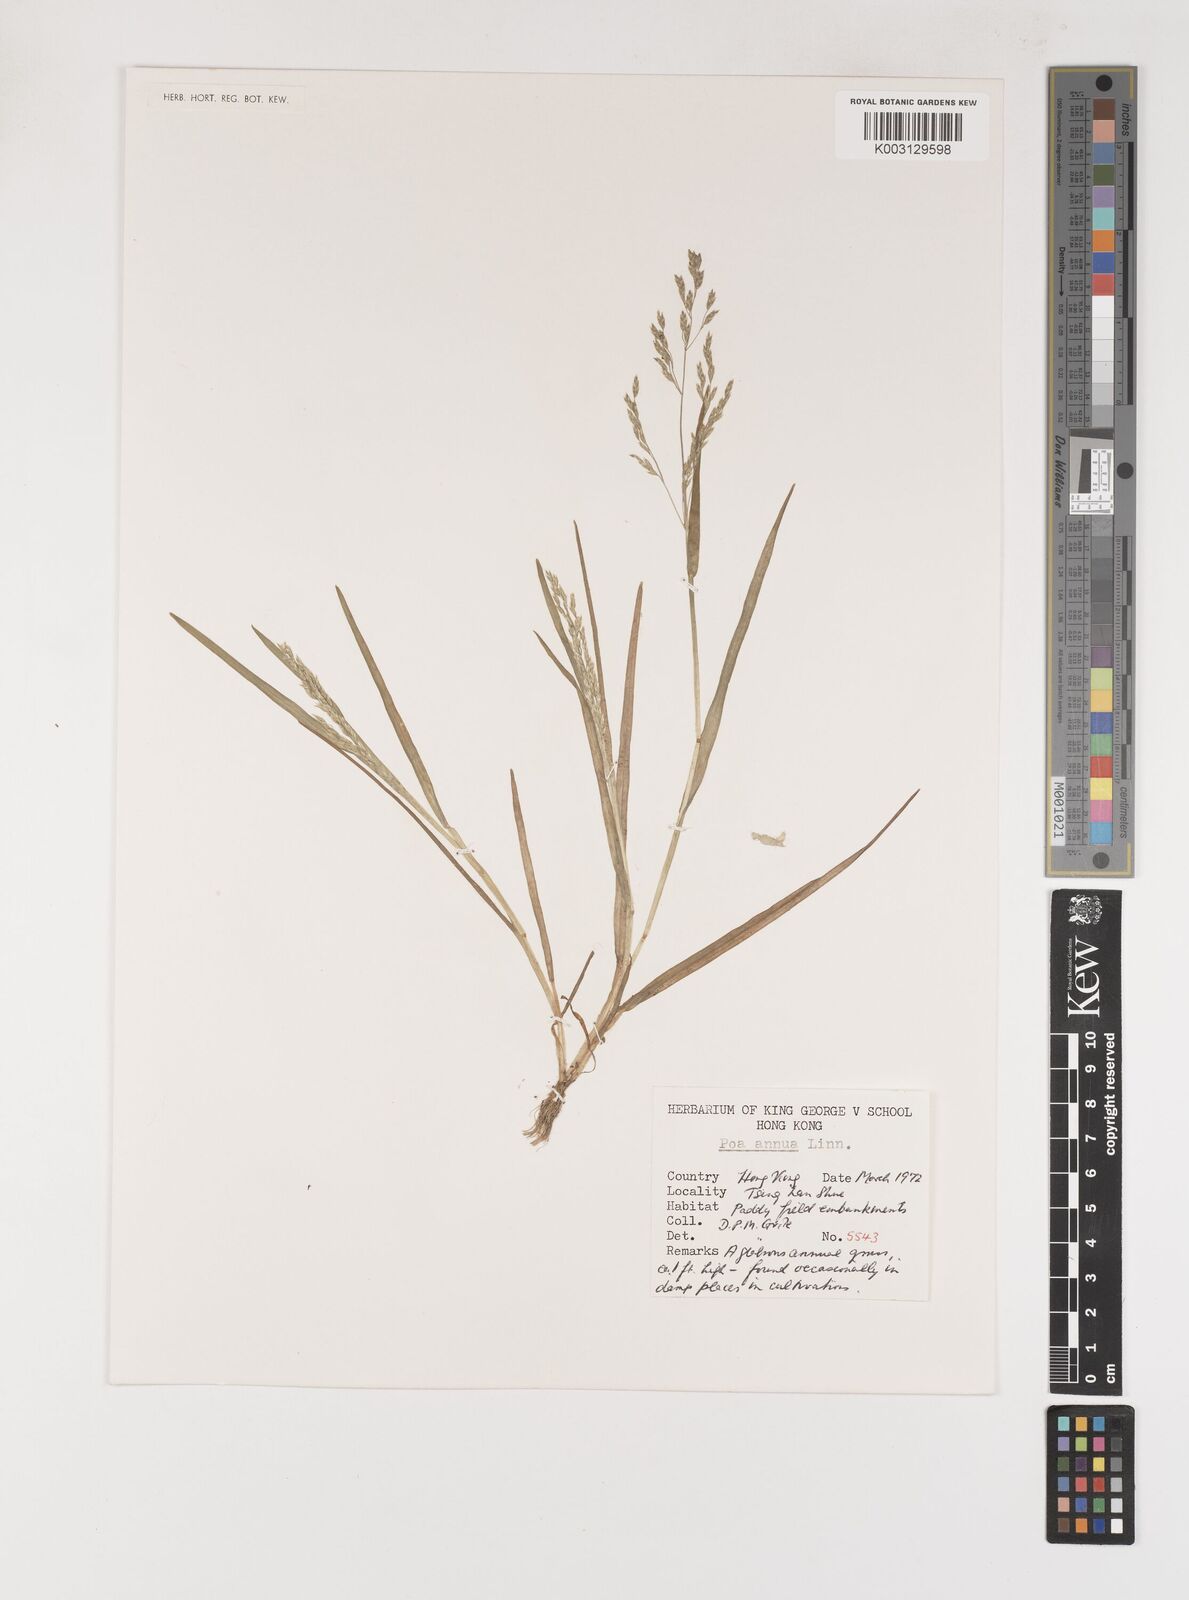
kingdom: Plantae
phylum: Tracheophyta
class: Liliopsida
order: Poales
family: Poaceae
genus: Poa
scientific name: Poa annua
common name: Annual bluegrass
